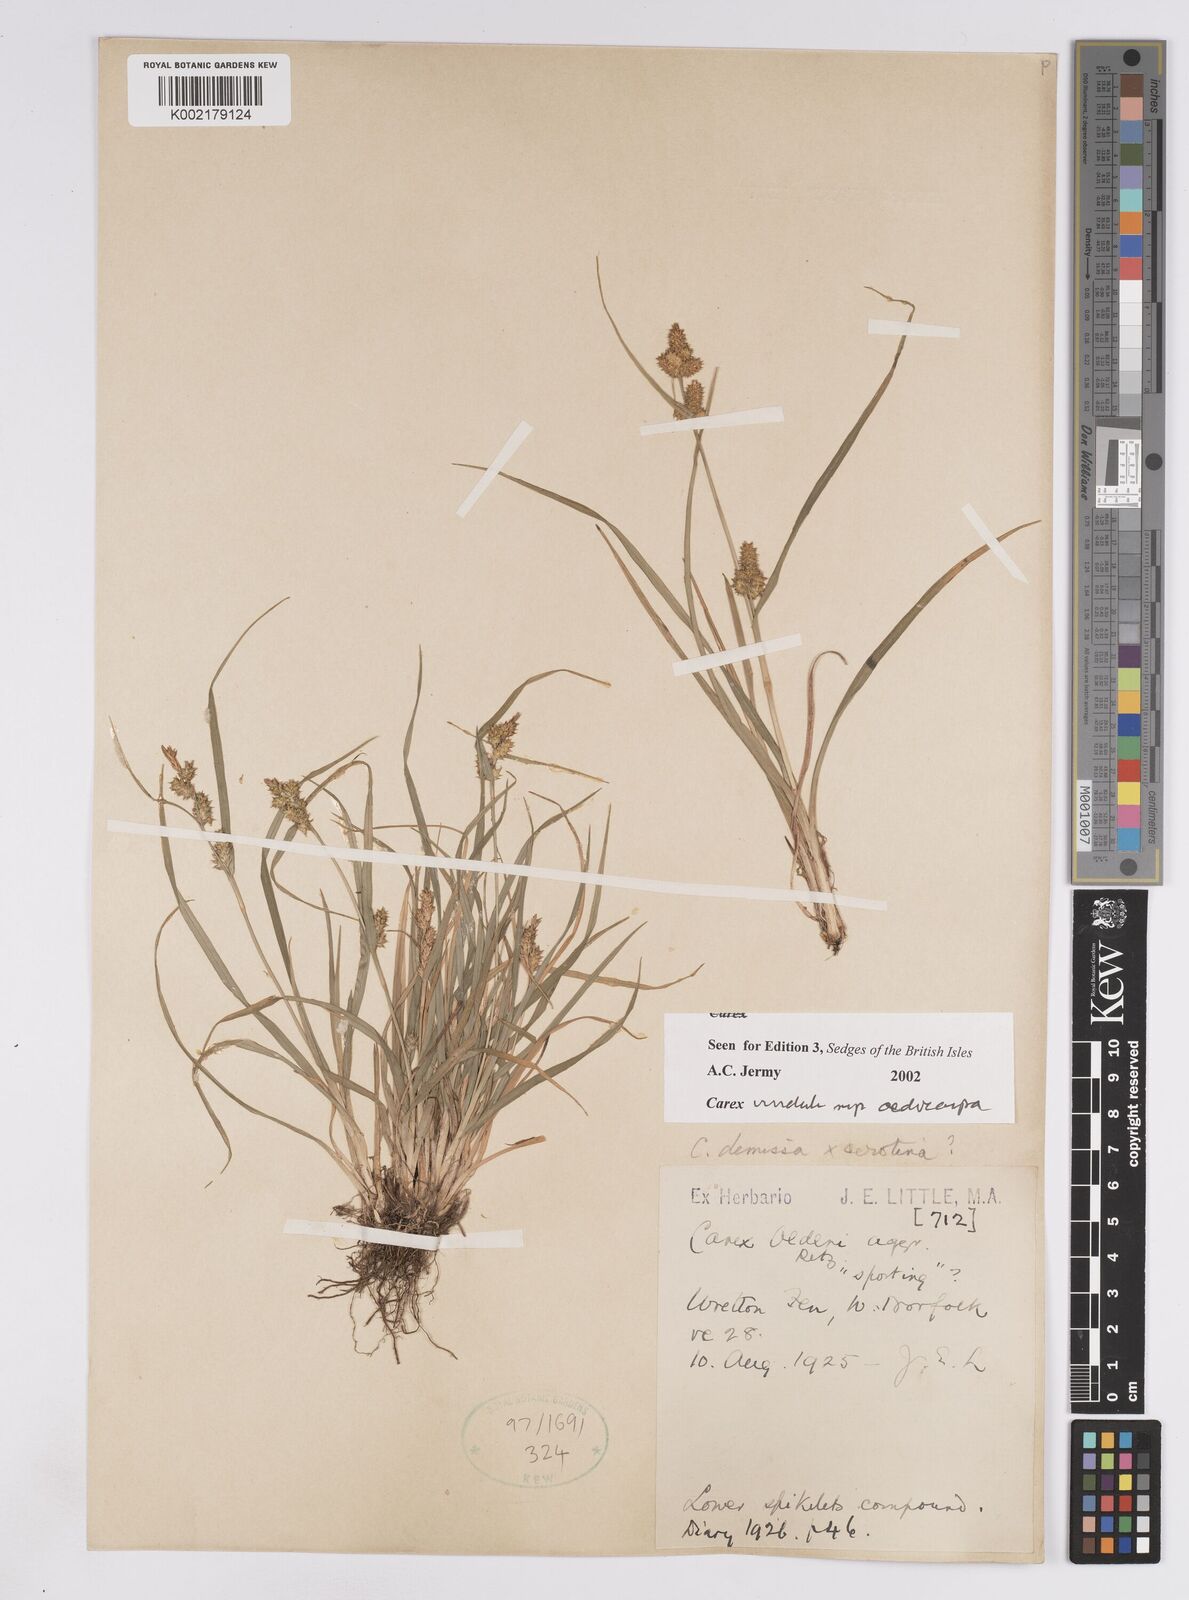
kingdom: Plantae
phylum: Tracheophyta
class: Liliopsida
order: Poales
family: Cyperaceae
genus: Carex
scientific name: Carex demissa
